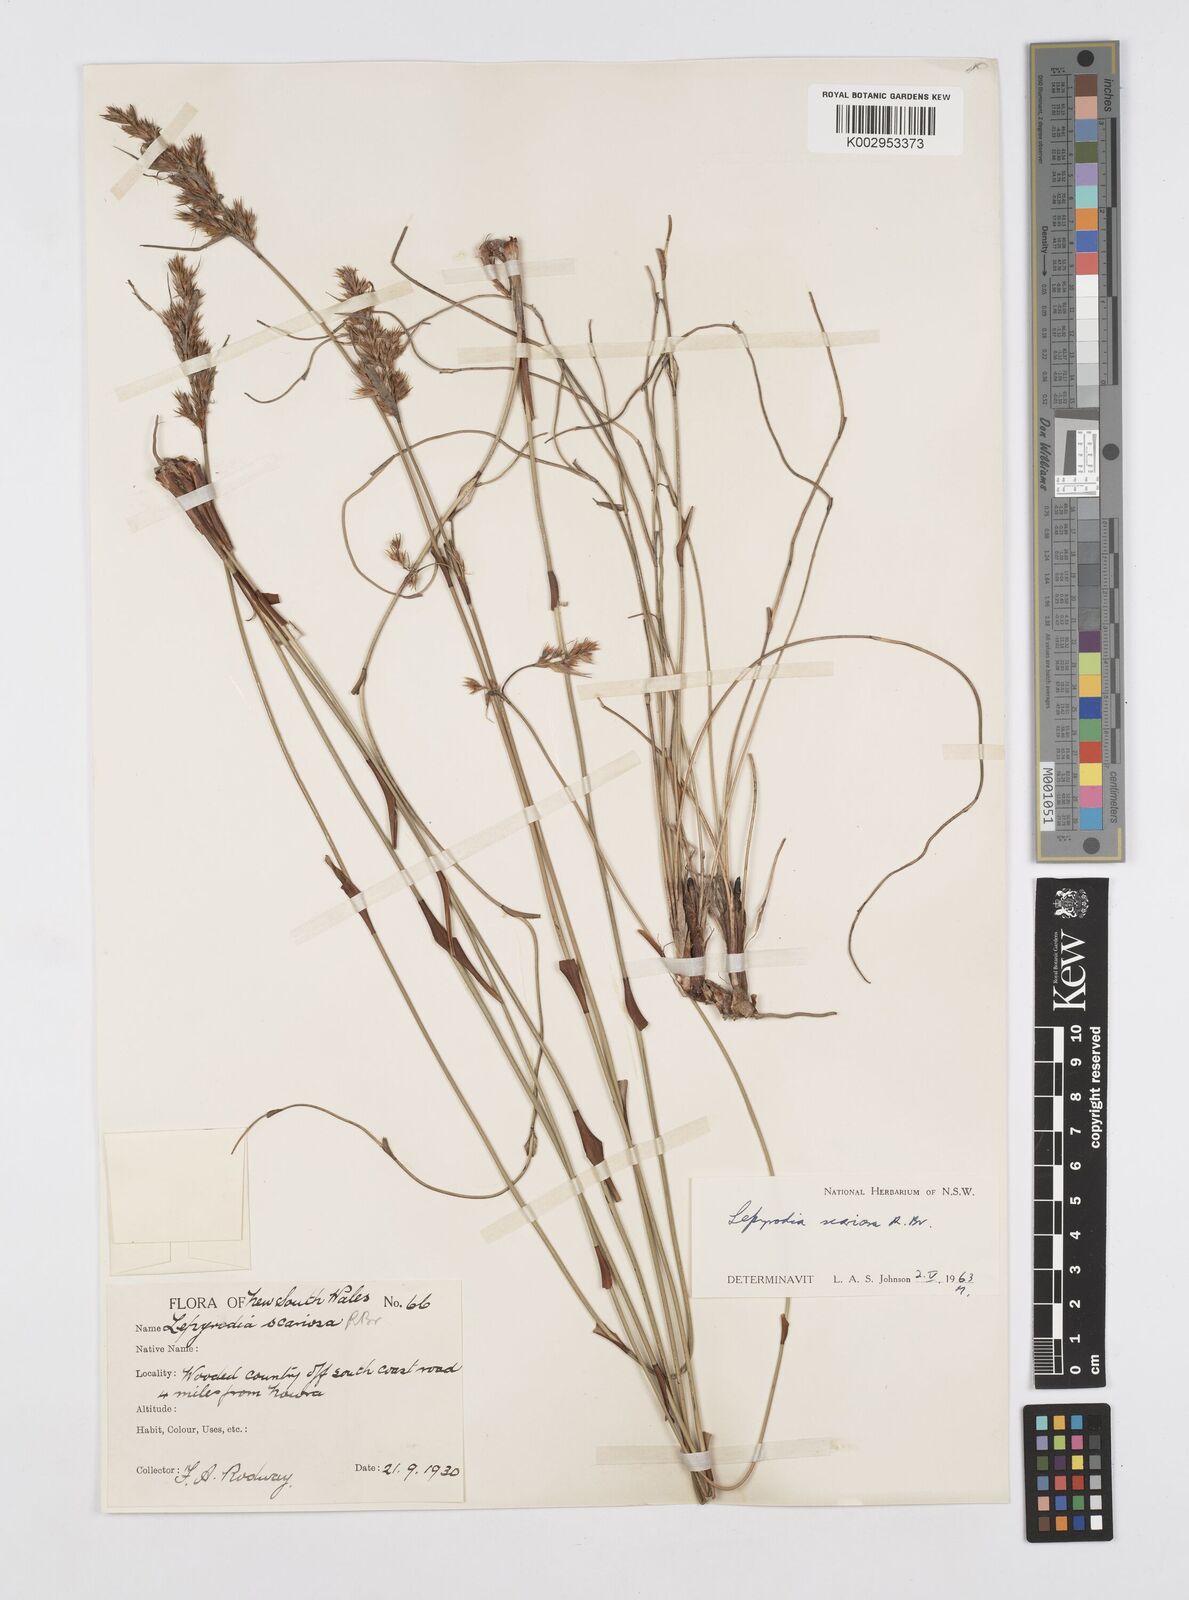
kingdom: Plantae
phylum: Tracheophyta
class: Liliopsida
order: Poales
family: Restionaceae
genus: Lepyrodia
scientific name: Lepyrodia scariosa
